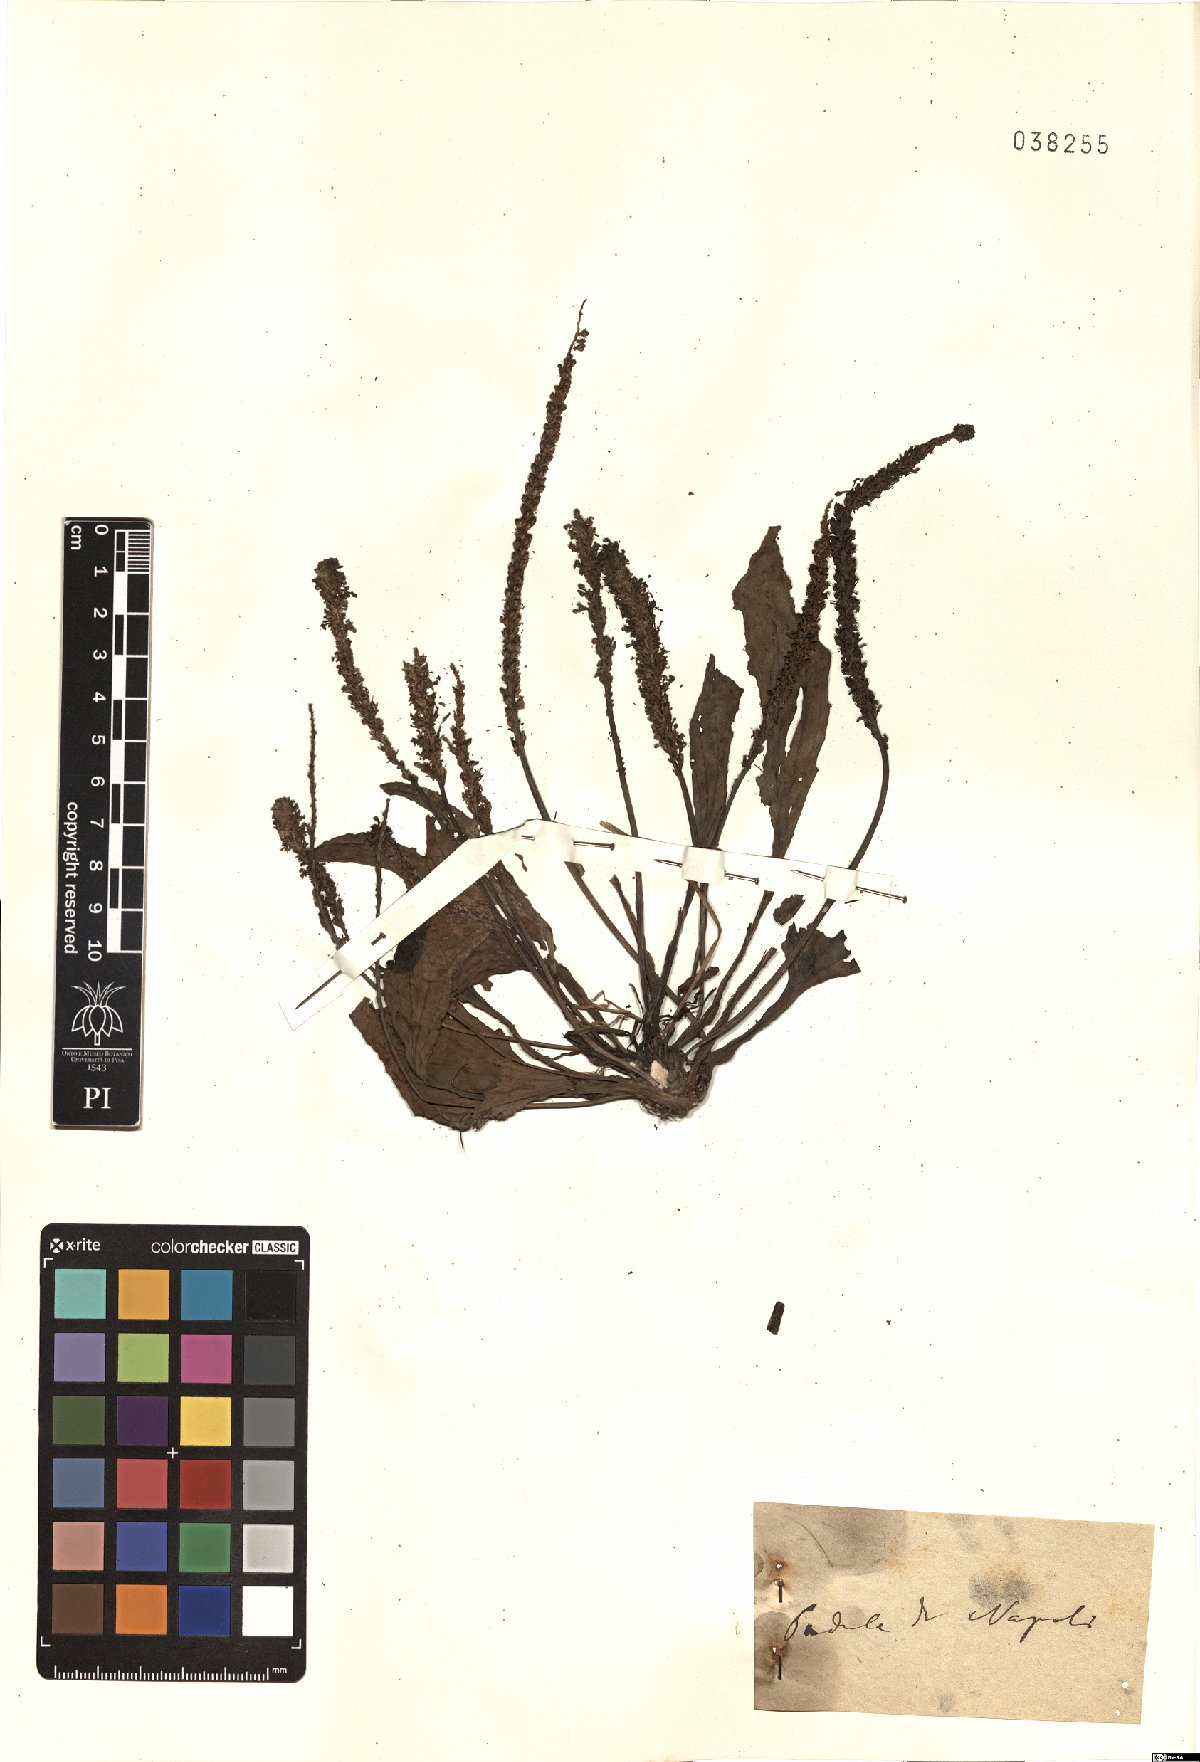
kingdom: Plantae
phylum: Tracheophyta
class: Magnoliopsida
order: Lamiales
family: Plantaginaceae
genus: Plantago
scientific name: Plantago
